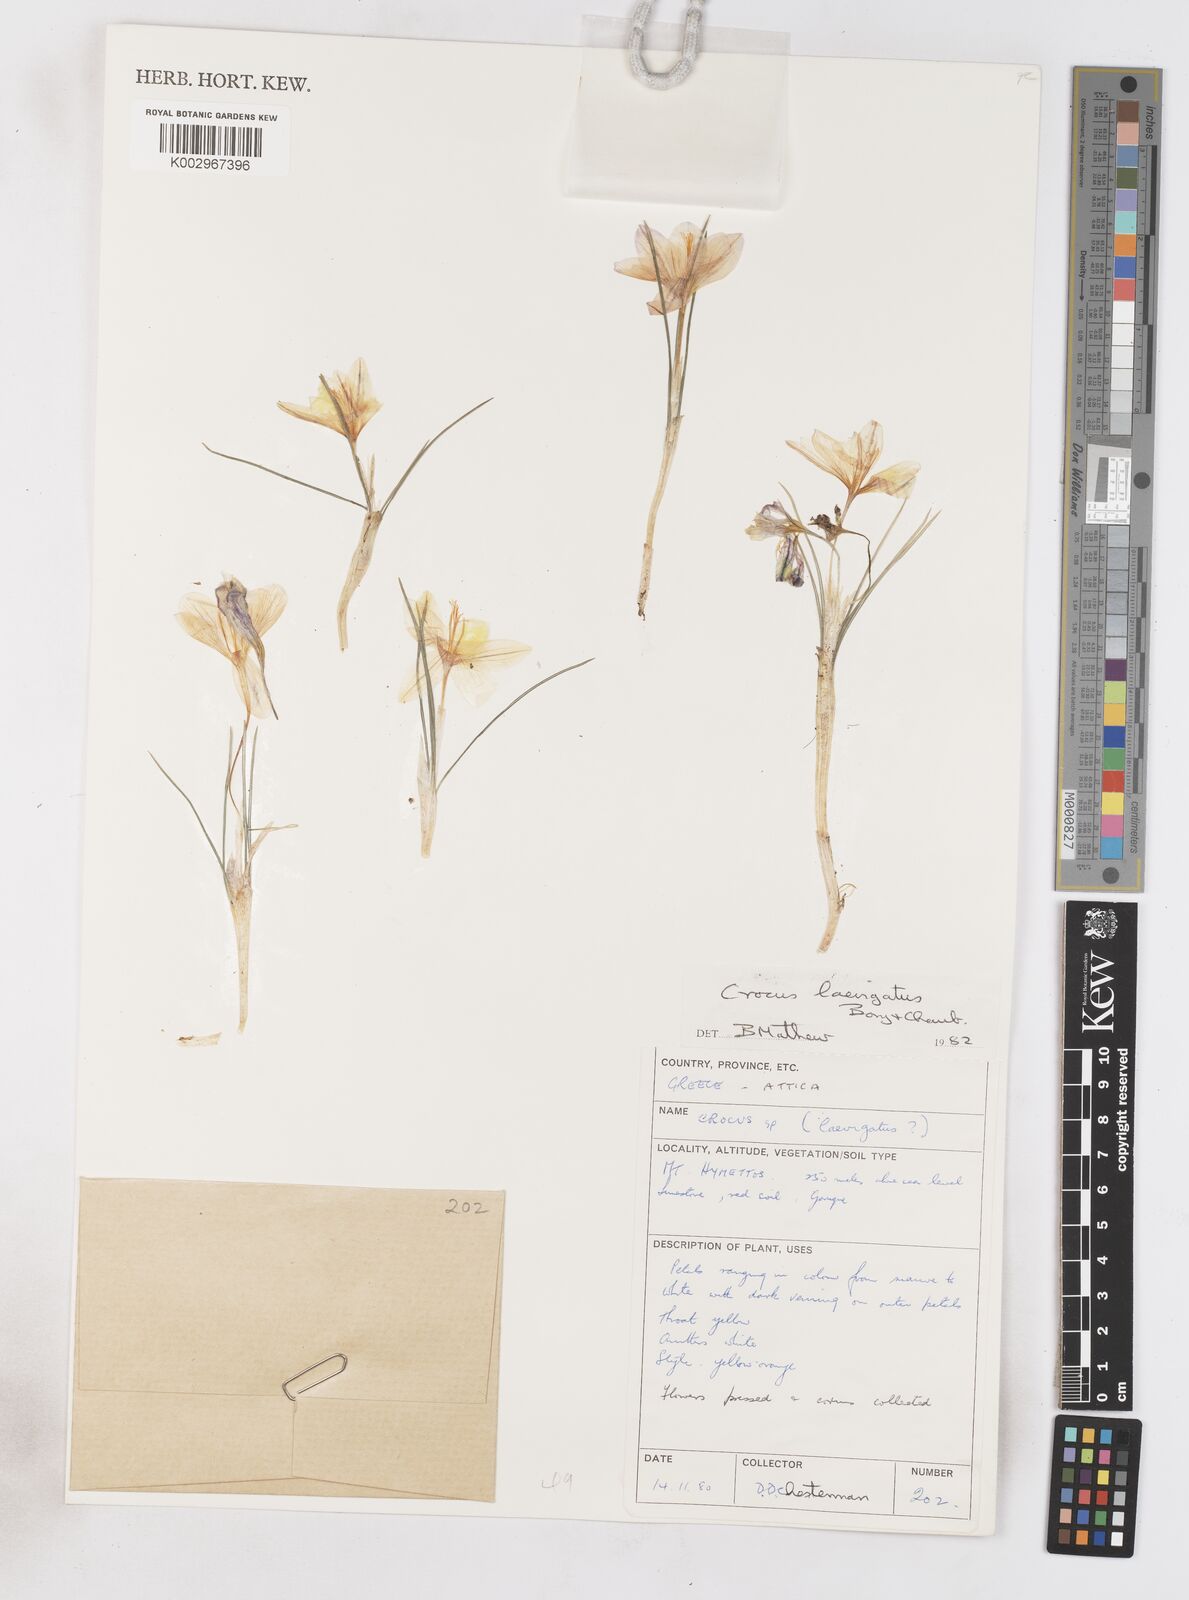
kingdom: Plantae
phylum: Tracheophyta
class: Liliopsida
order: Asparagales
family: Iridaceae
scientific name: Iridaceae
